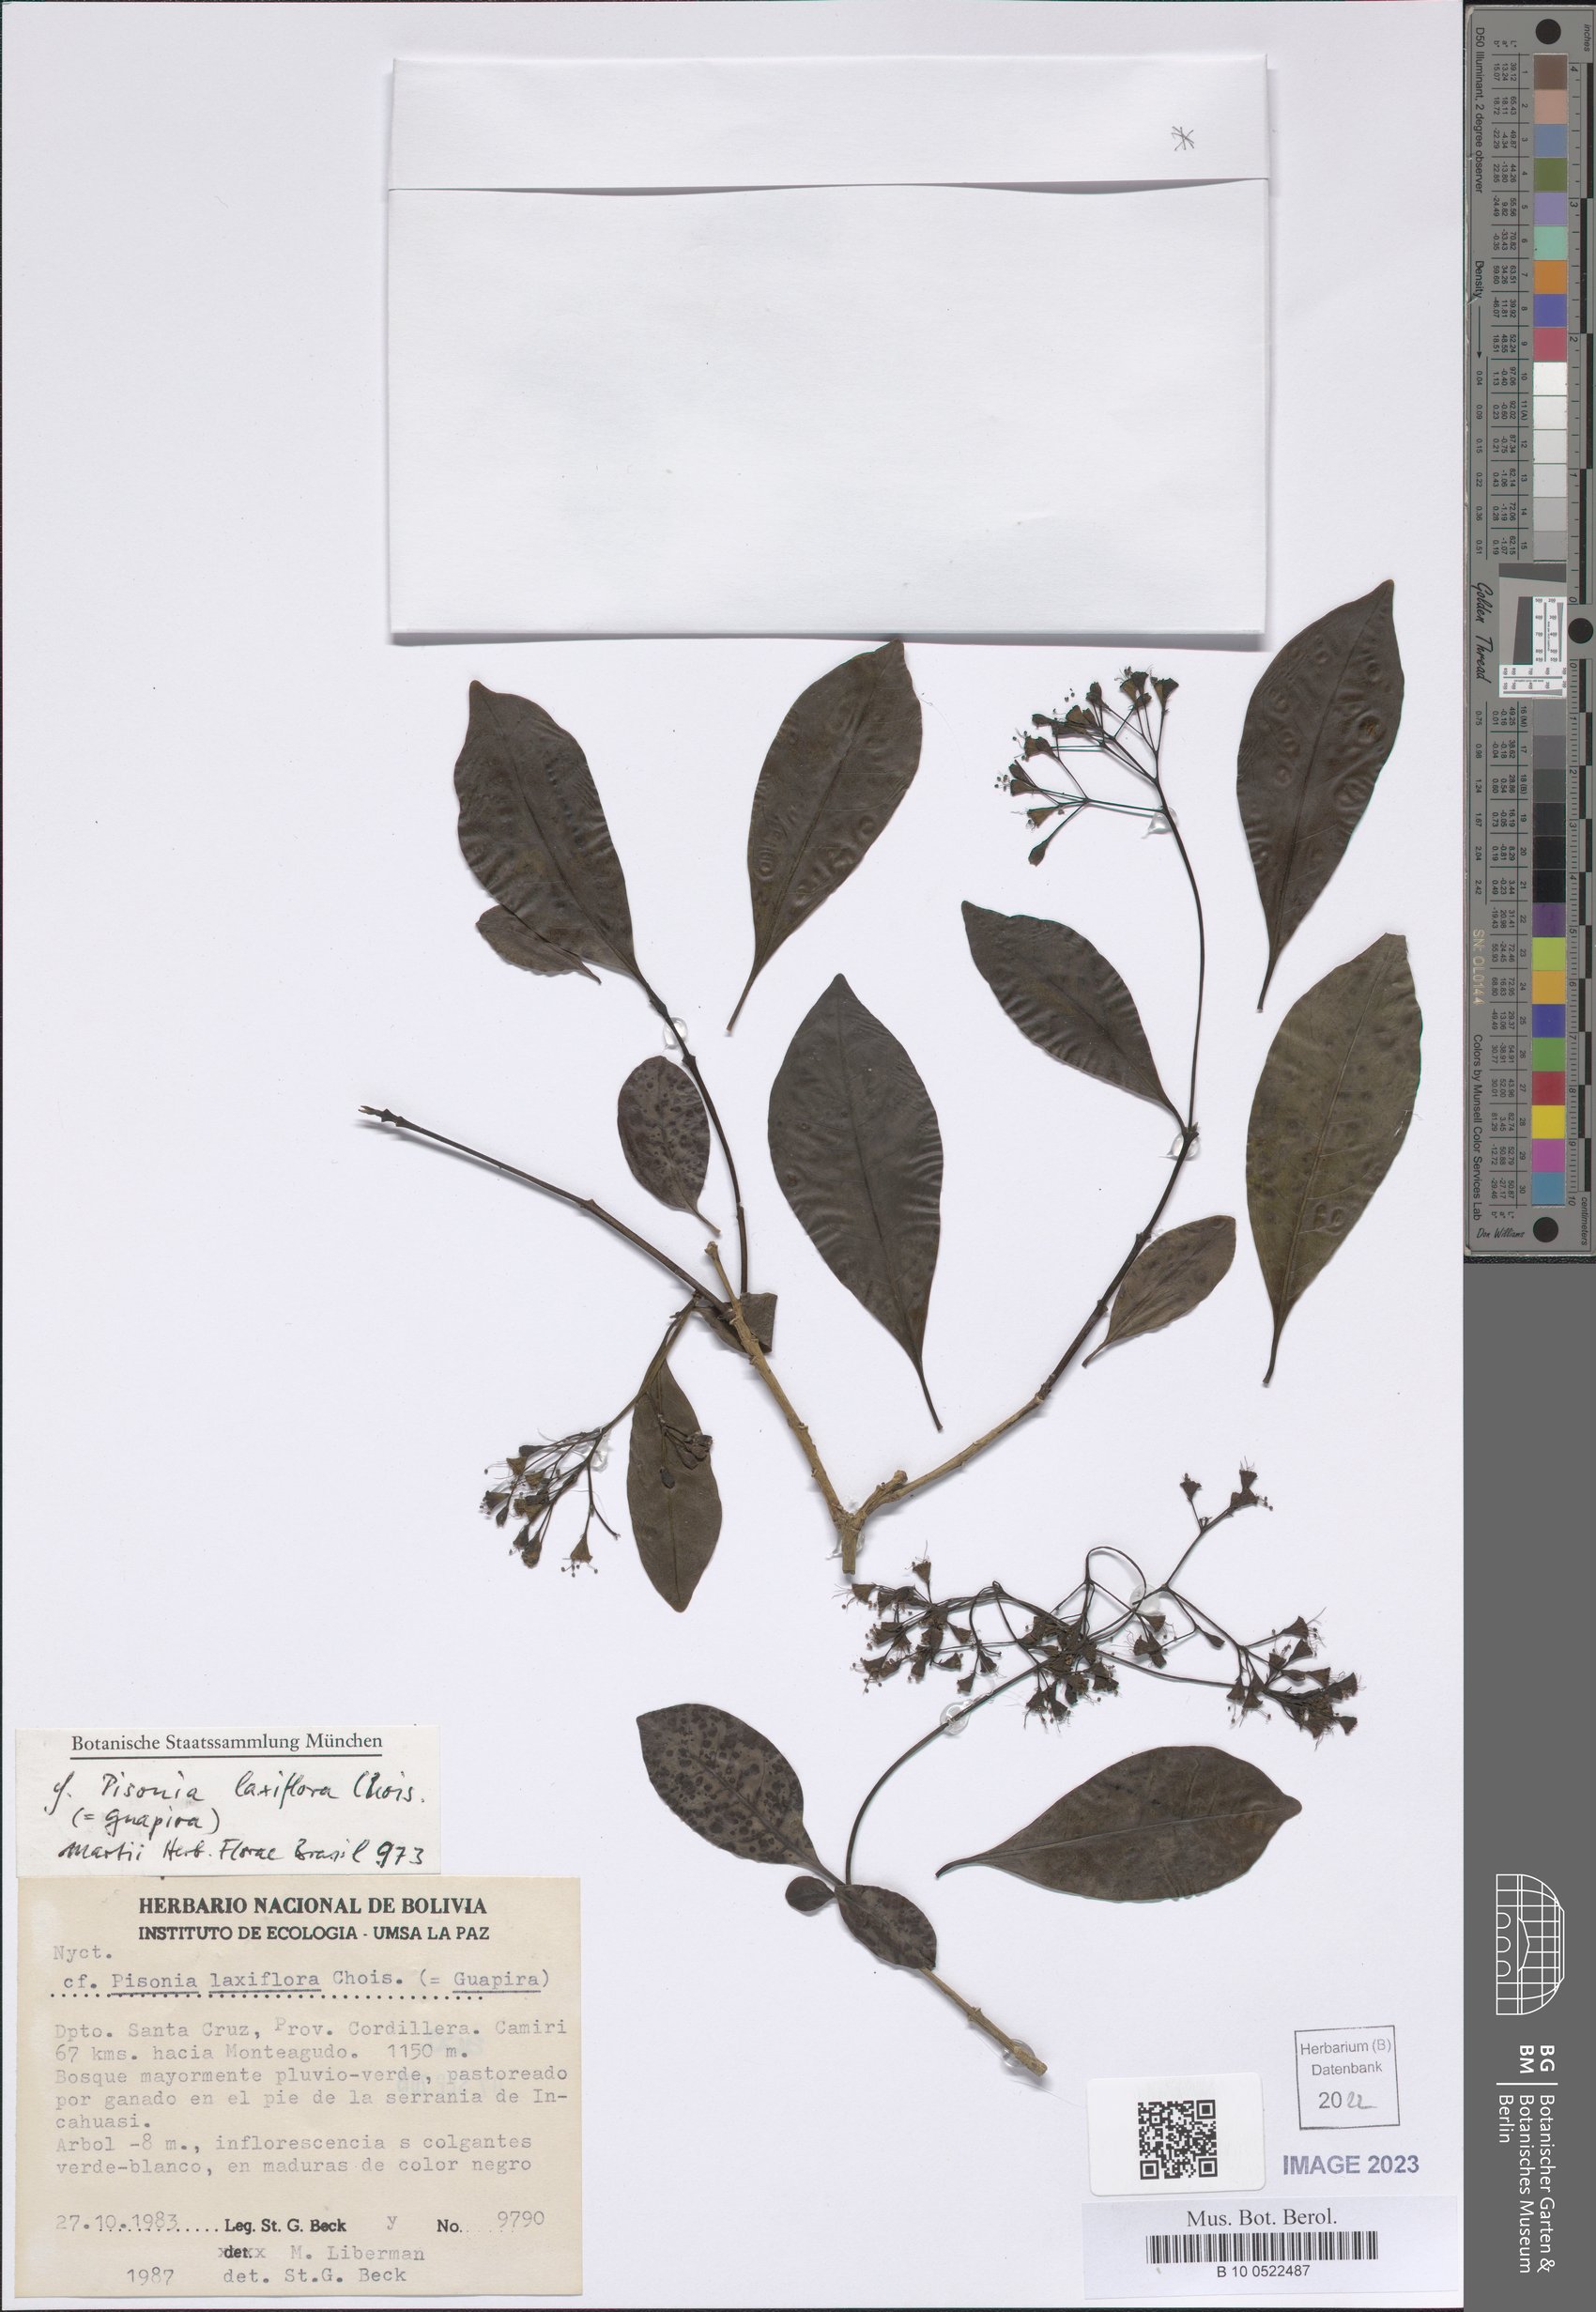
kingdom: Plantae
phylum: Tracheophyta
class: Magnoliopsida
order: Caryophyllales
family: Nyctaginaceae
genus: Guapira
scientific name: Guapira laxiflora
